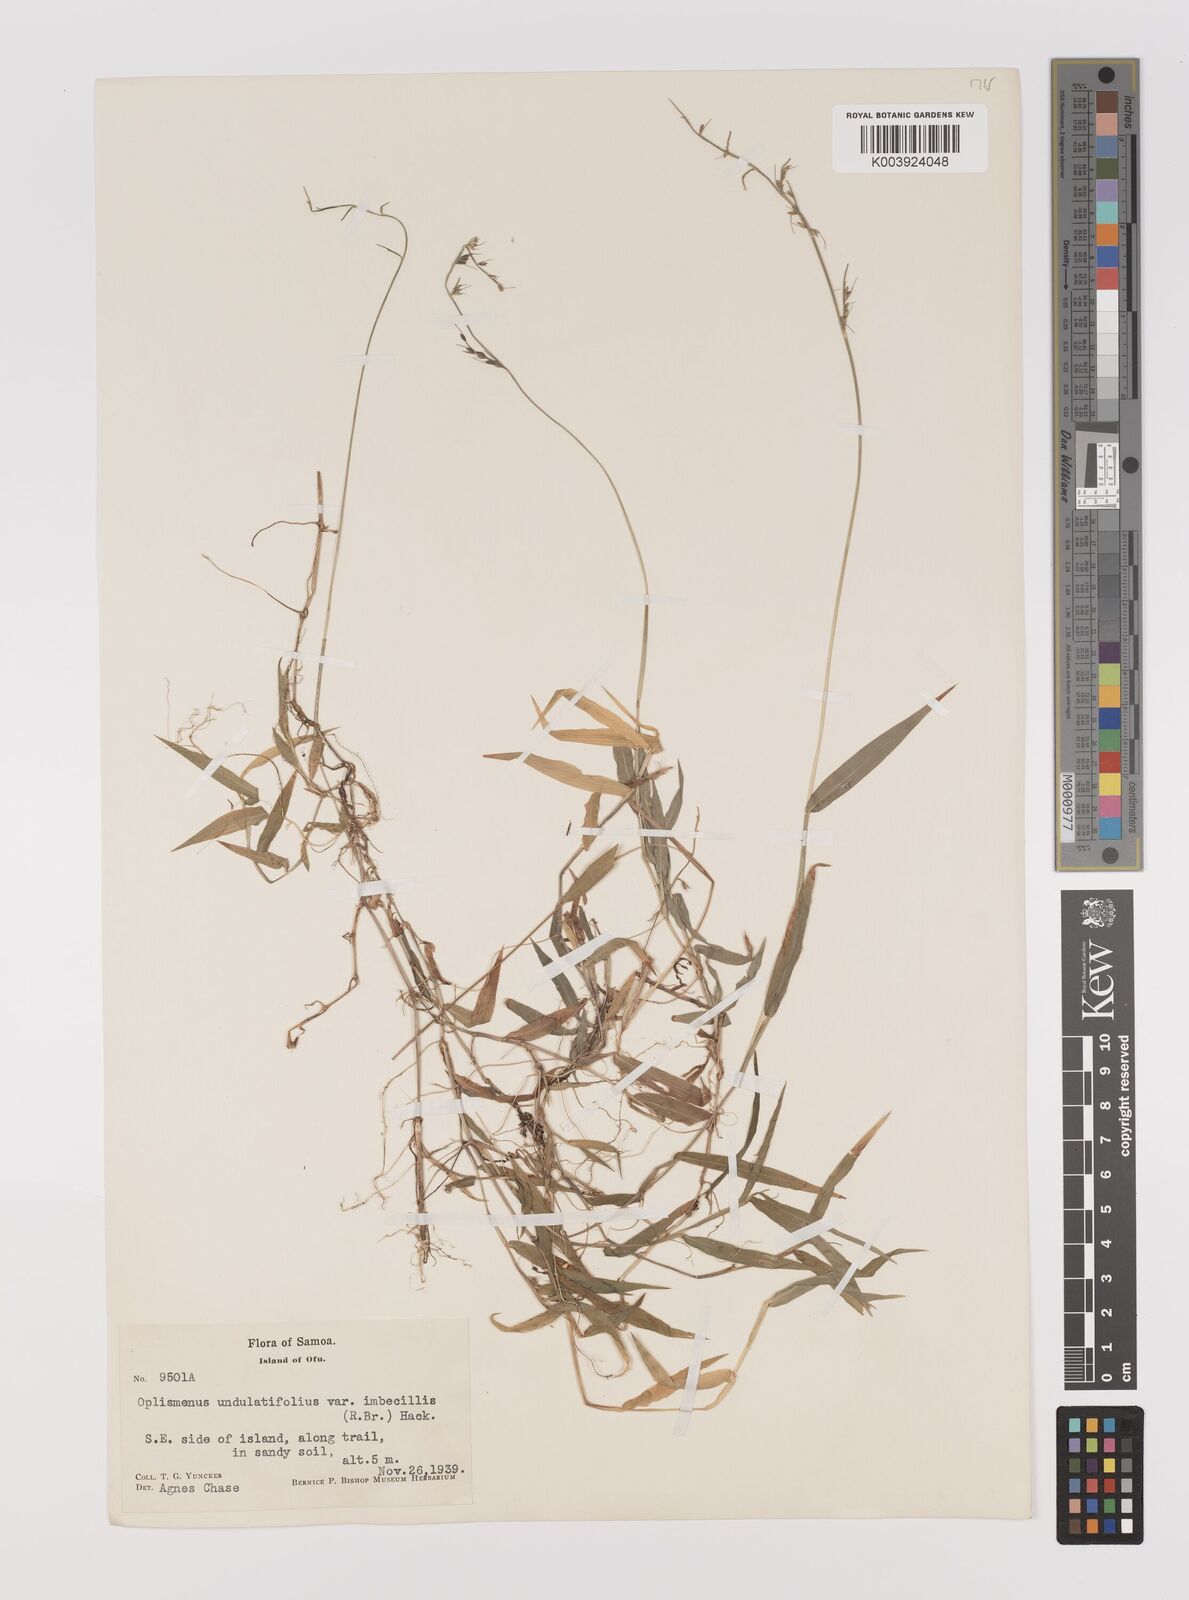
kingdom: Plantae
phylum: Tracheophyta
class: Liliopsida
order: Poales
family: Poaceae
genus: Oplismenus
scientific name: Oplismenus hirtellus
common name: Basketgrass
